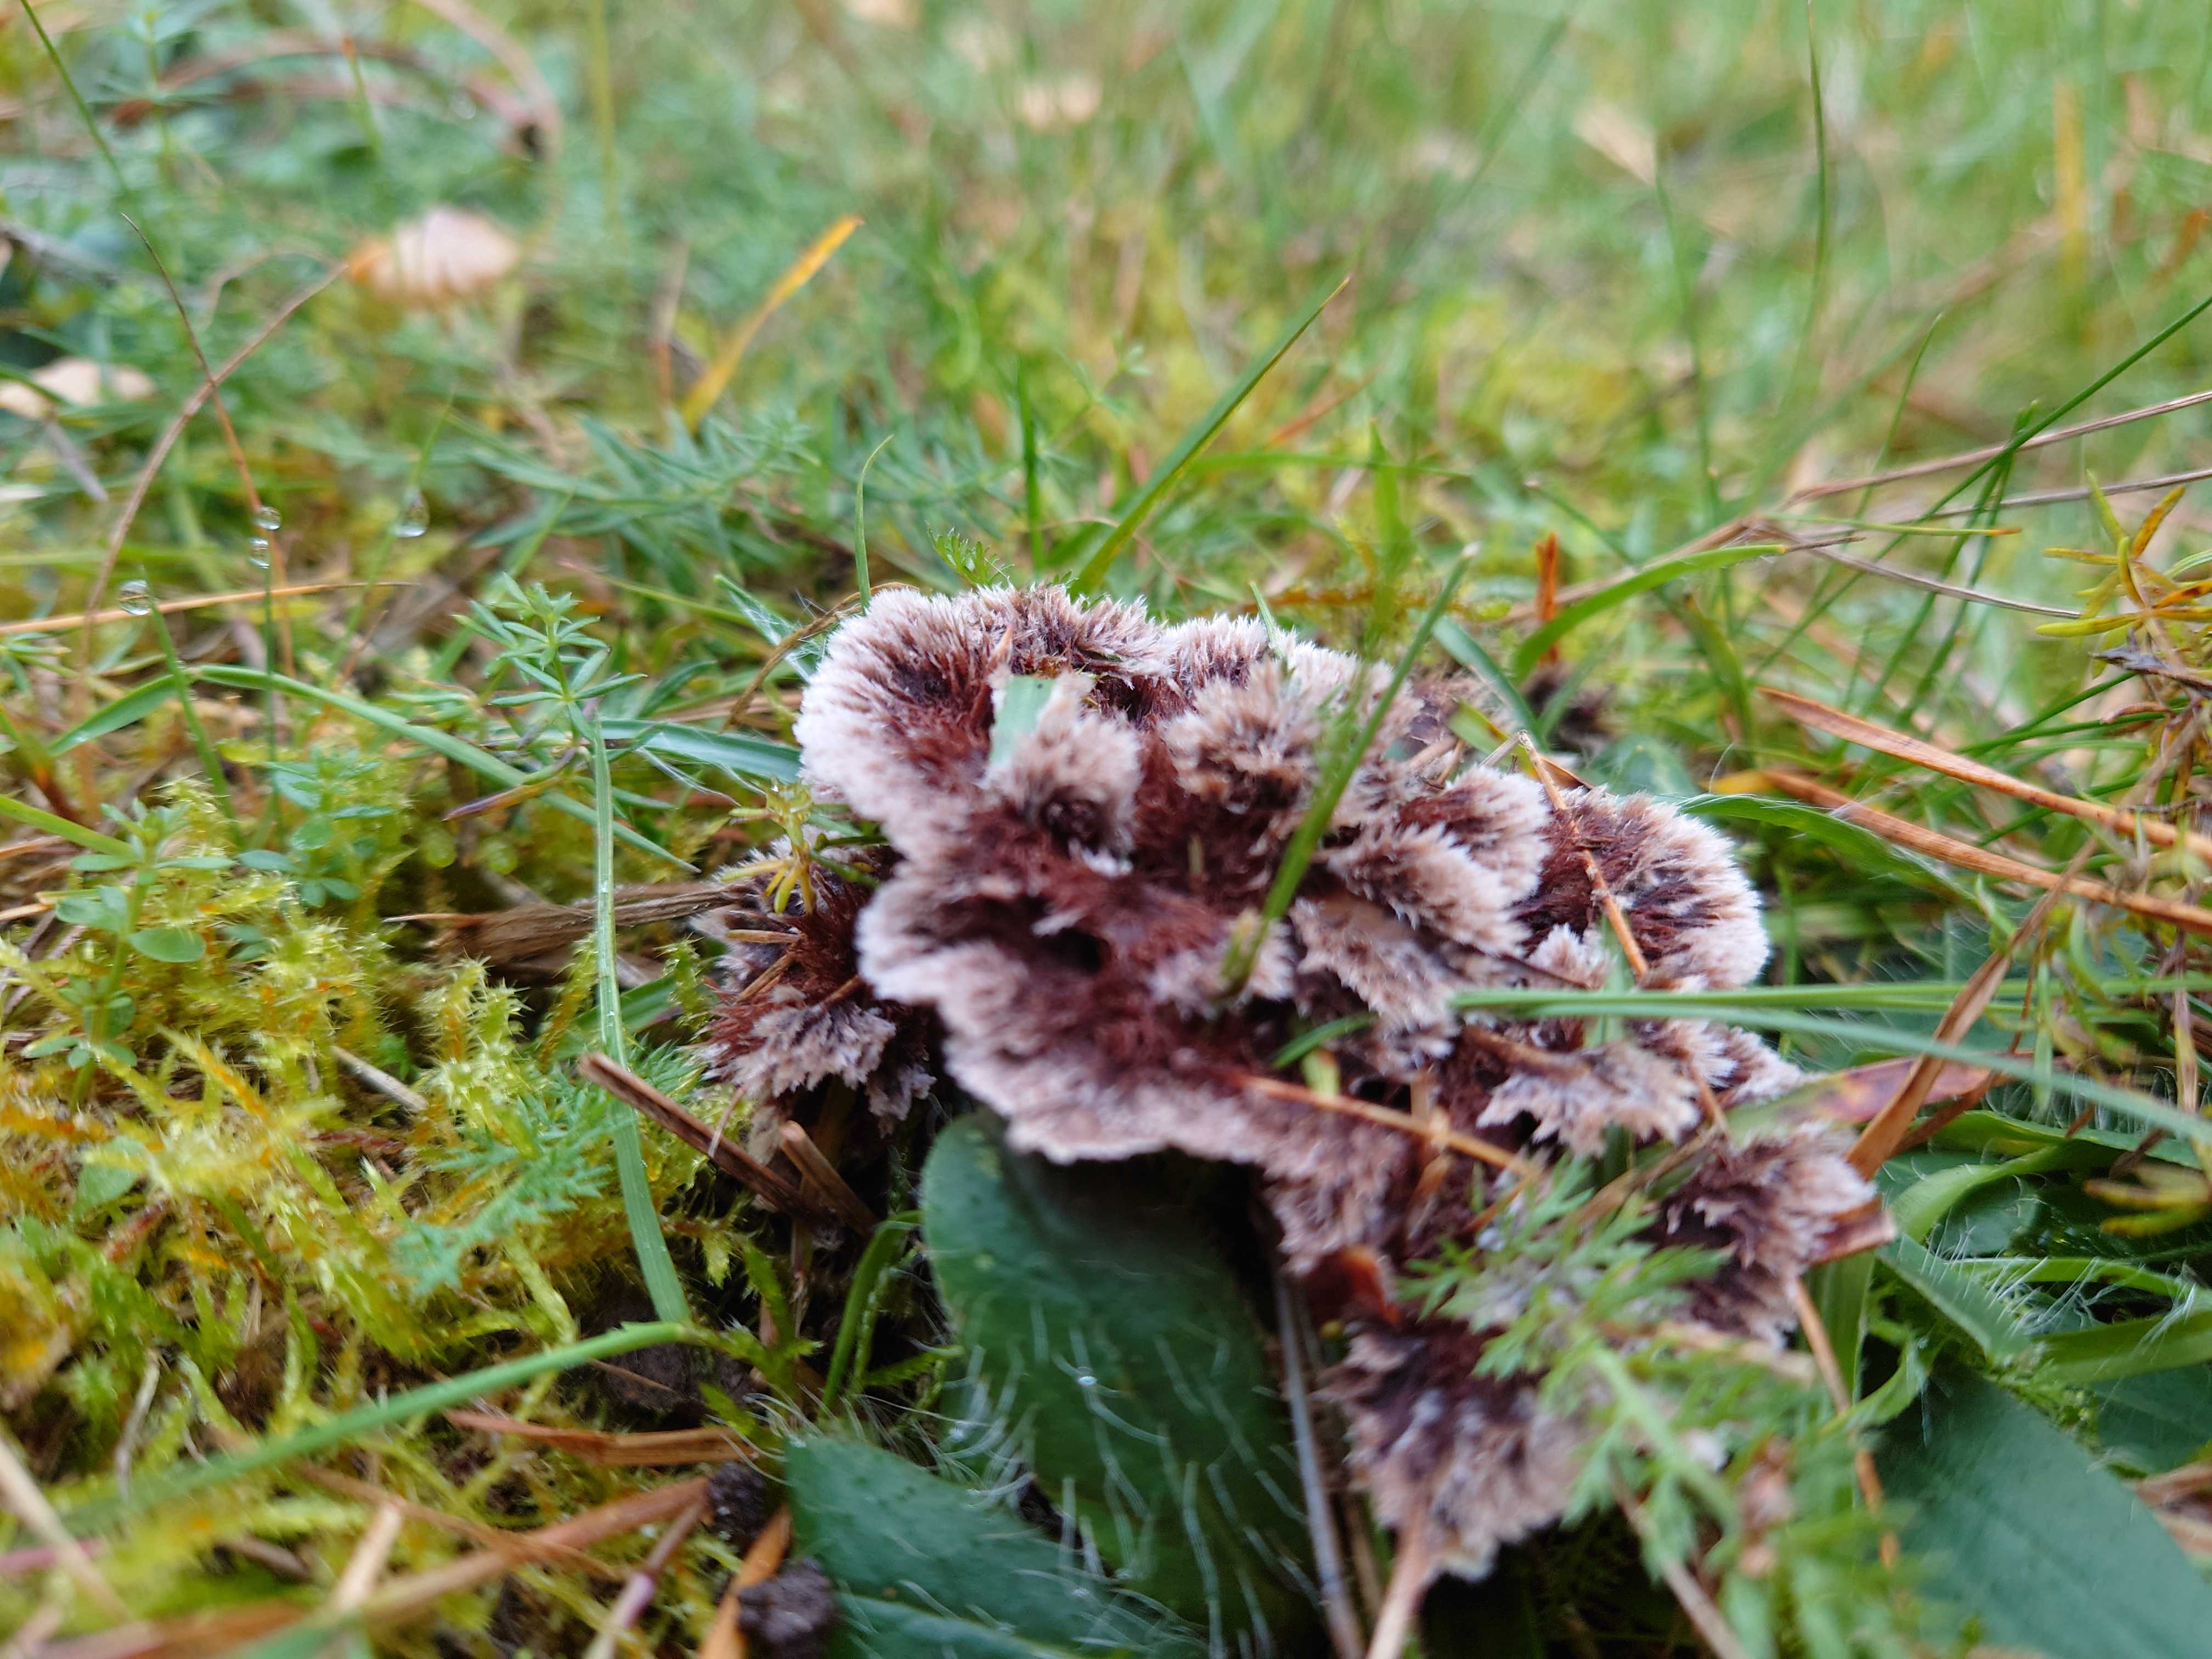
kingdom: Fungi
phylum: Basidiomycota
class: Agaricomycetes
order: Thelephorales
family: Thelephoraceae
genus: Thelephora
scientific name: Thelephora terrestris
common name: fliget frynsesvamp
